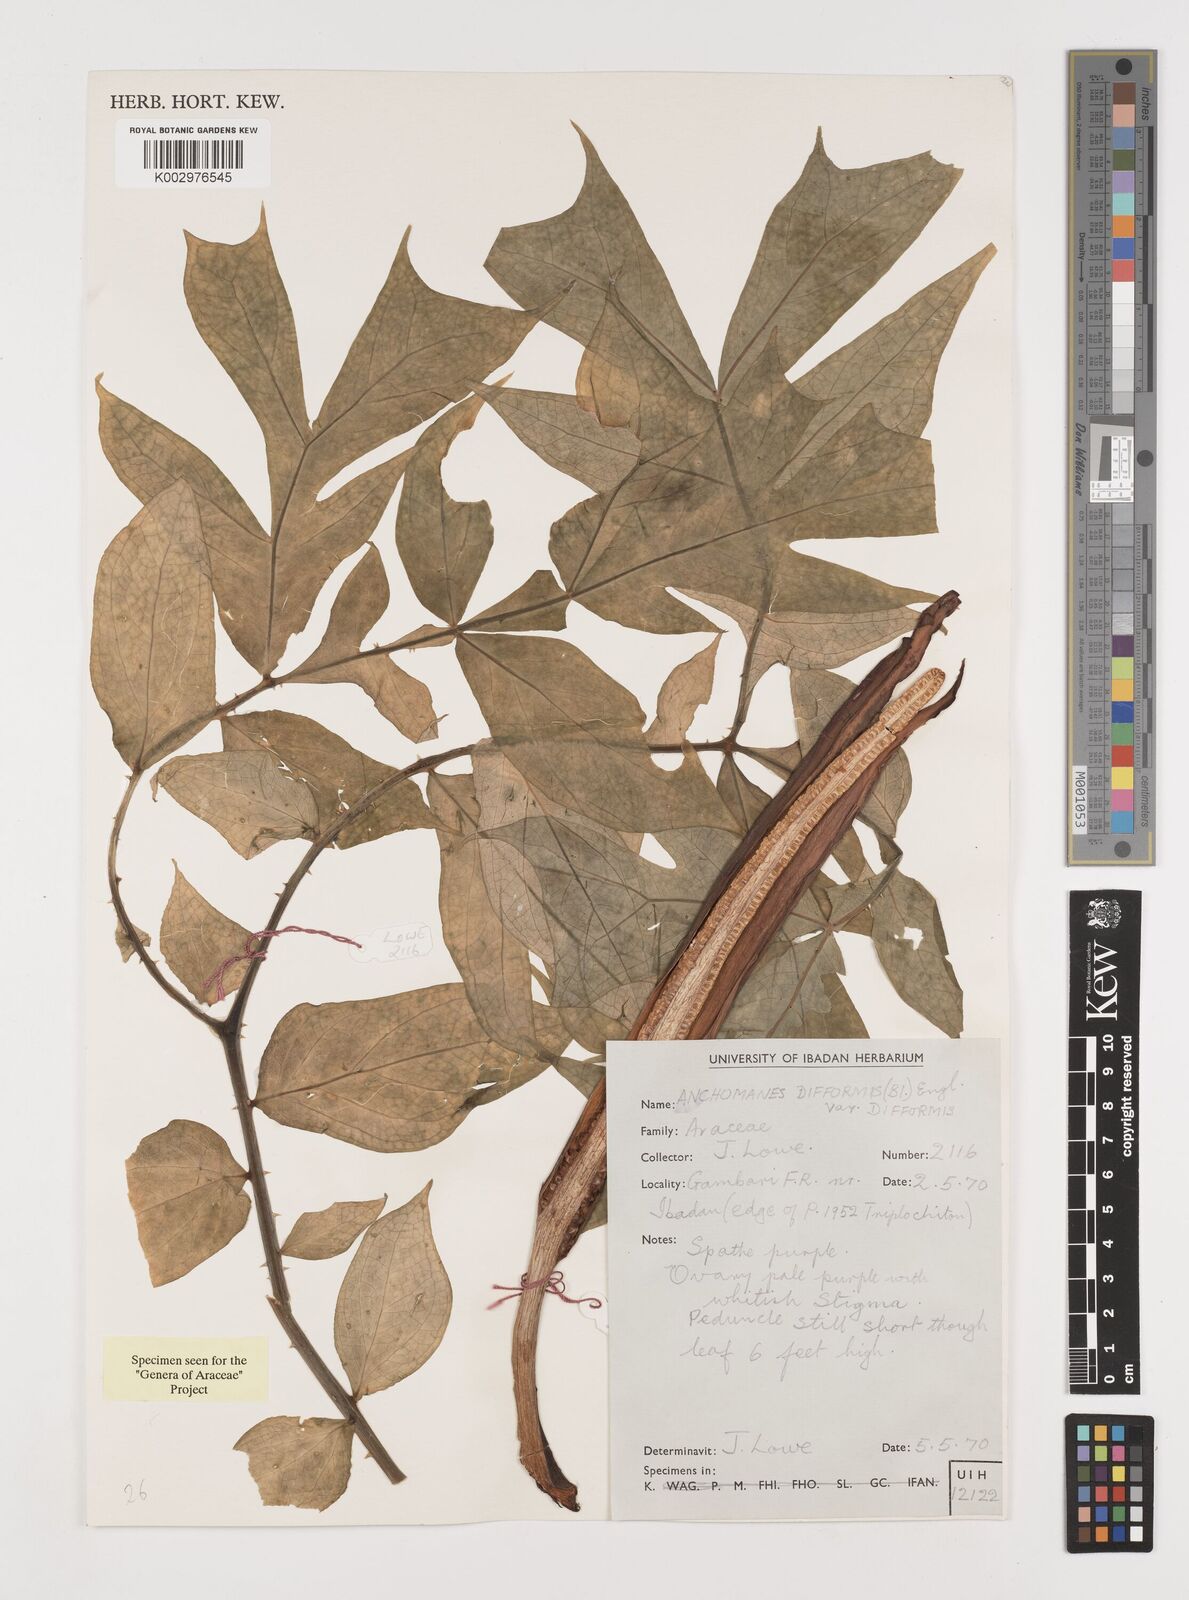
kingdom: Plantae
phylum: Tracheophyta
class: Liliopsida
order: Alismatales
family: Araceae
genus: Anchomanes
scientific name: Anchomanes difformis
